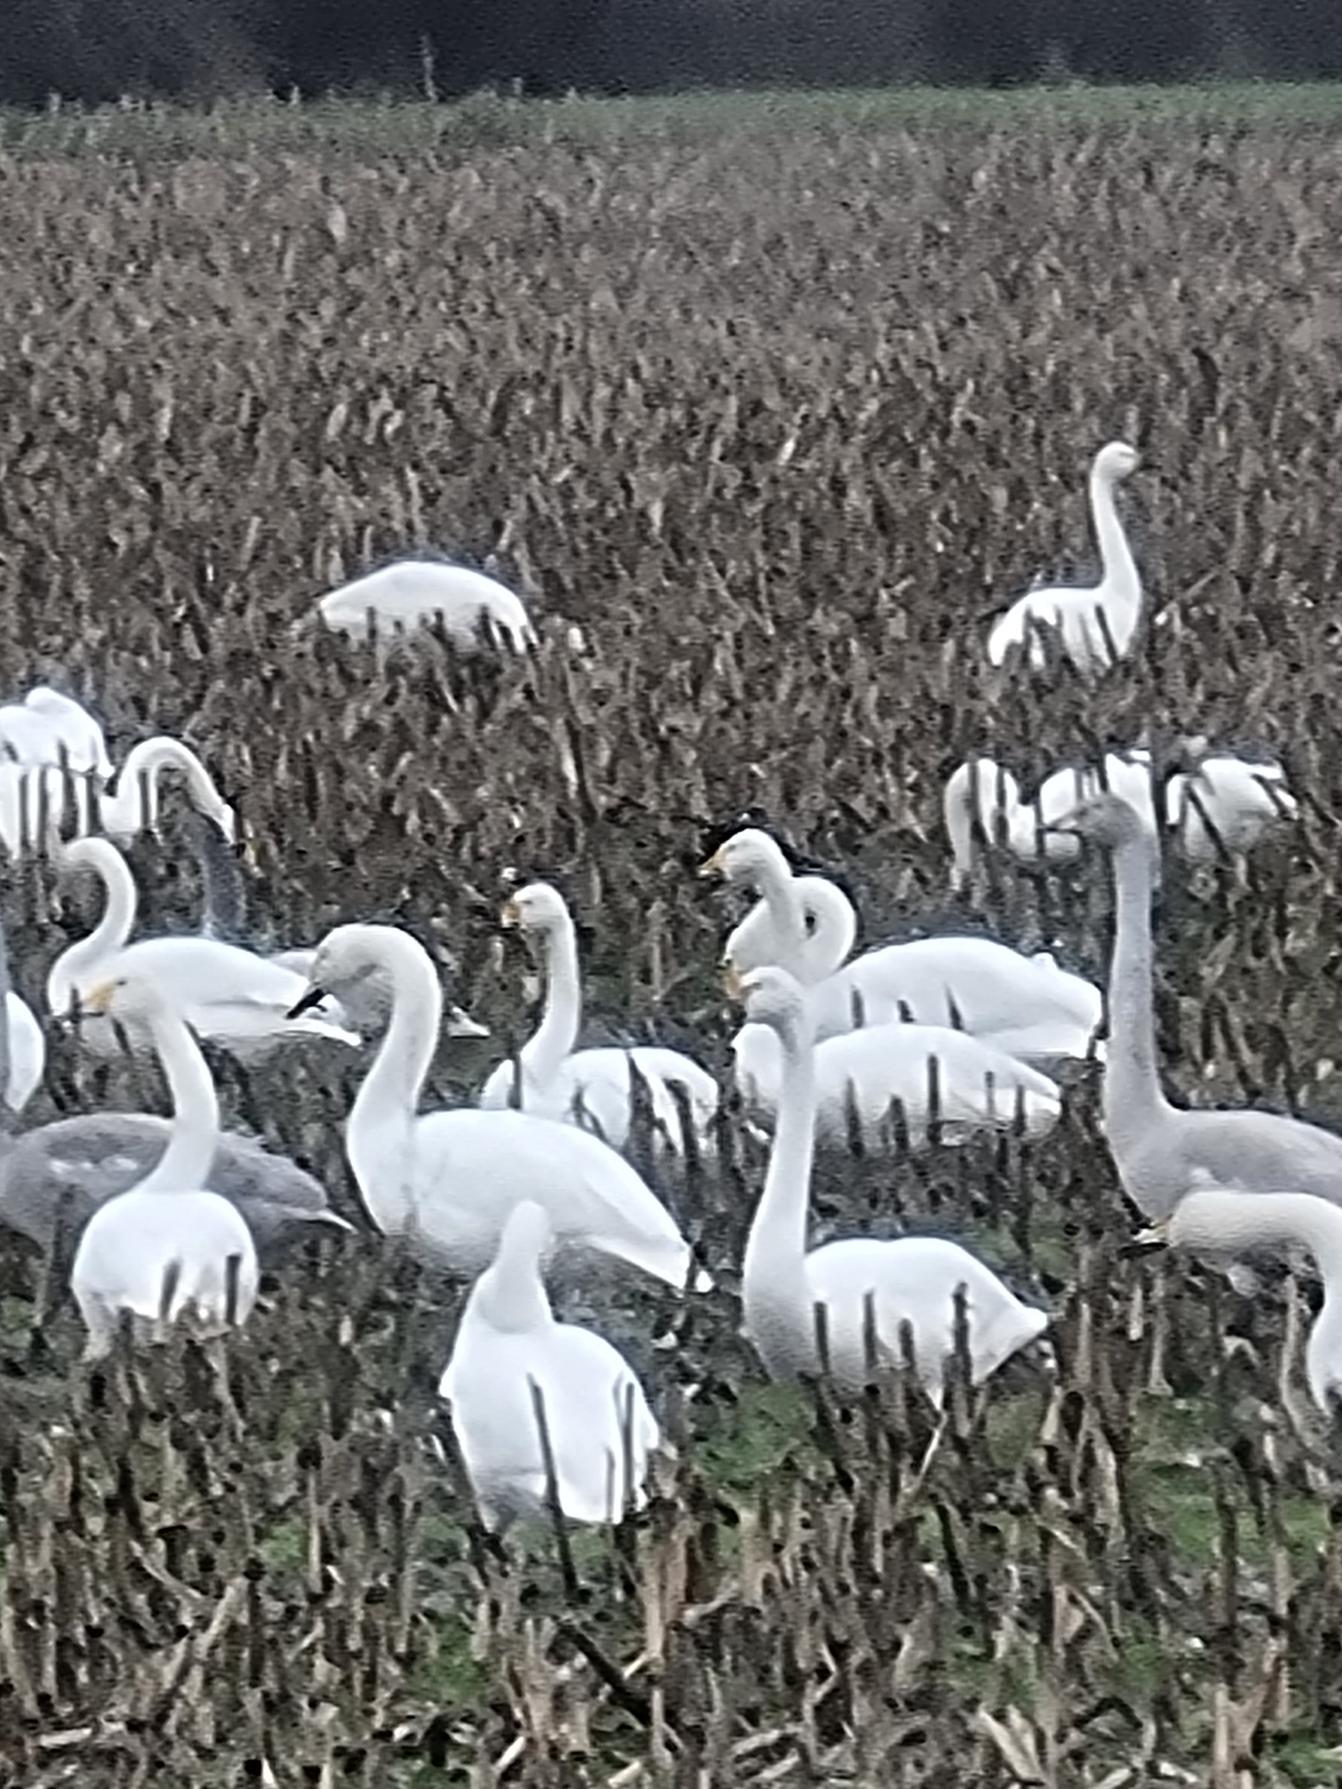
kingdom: Animalia
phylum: Chordata
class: Aves
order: Anseriformes
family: Anatidae
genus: Cygnus
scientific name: Cygnus cygnus
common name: Sangsvane
